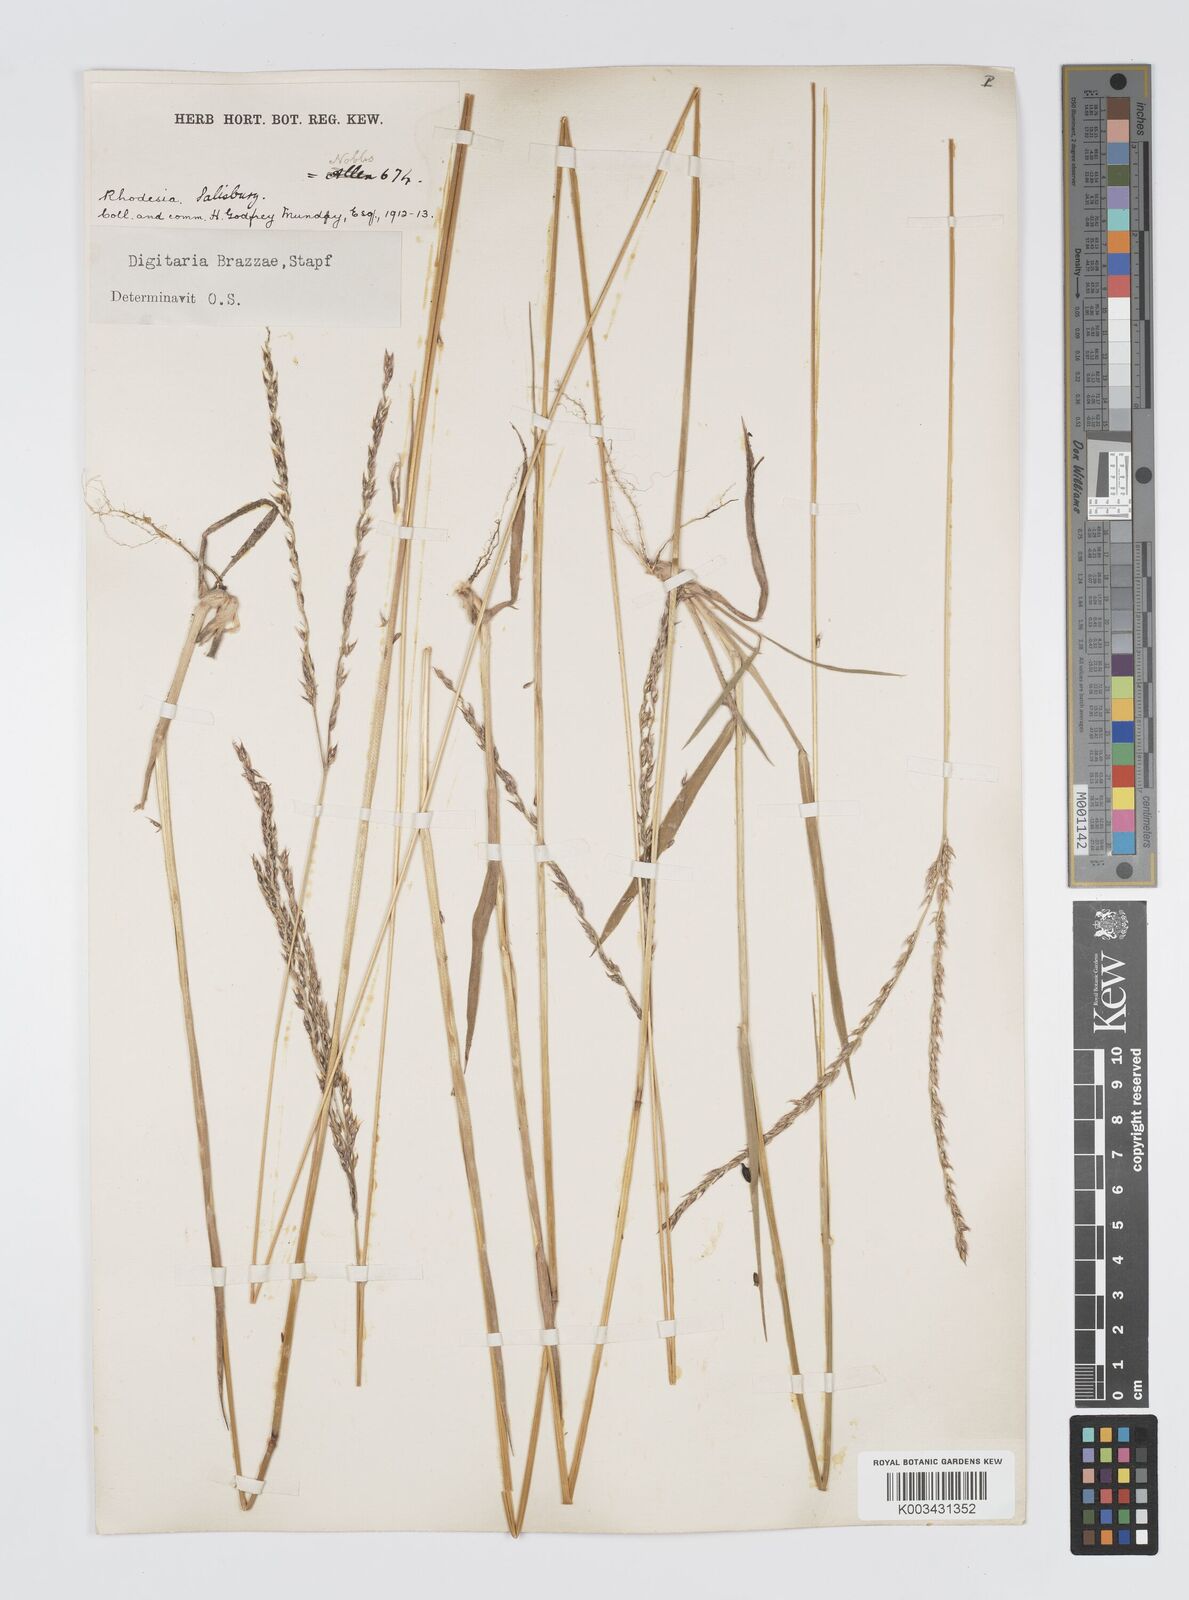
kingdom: Plantae
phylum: Tracheophyta
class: Liliopsida
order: Poales
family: Poaceae
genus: Digitaria
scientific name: Digitaria brazzae
